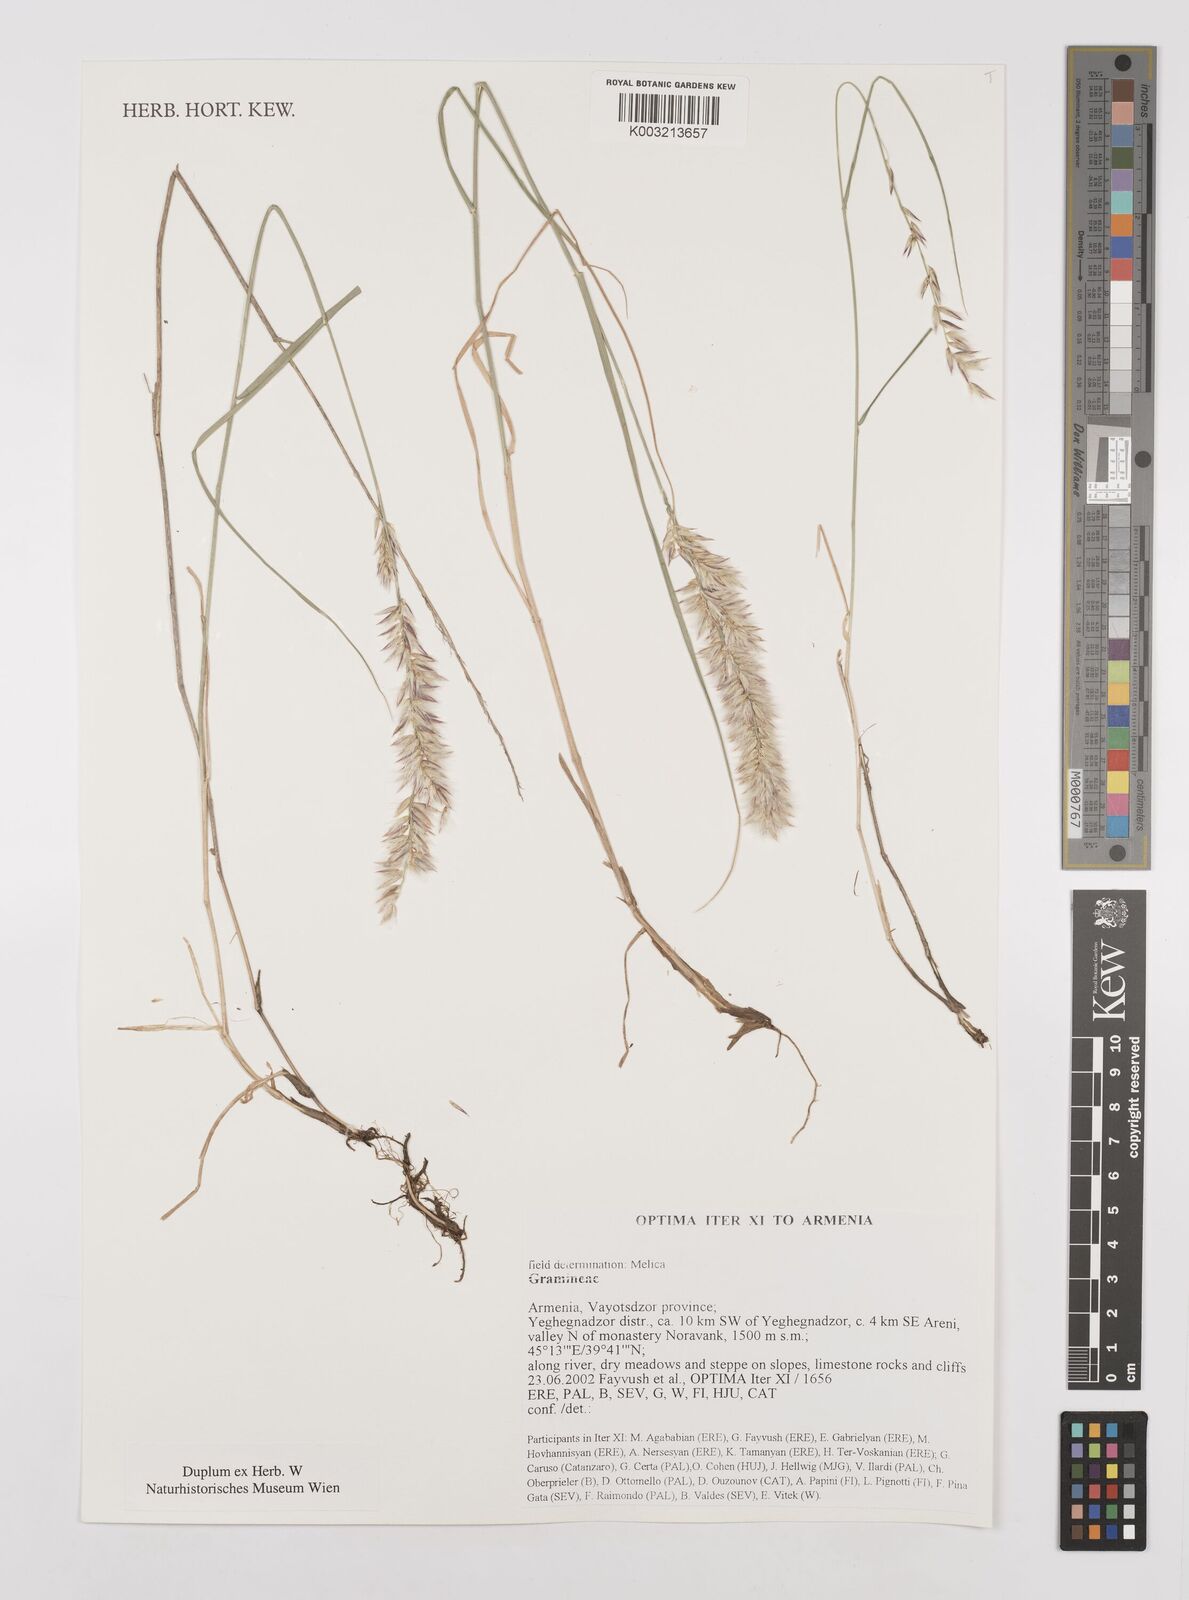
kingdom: Plantae
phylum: Tracheophyta
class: Liliopsida
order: Poales
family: Poaceae
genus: Melica
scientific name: Melica
